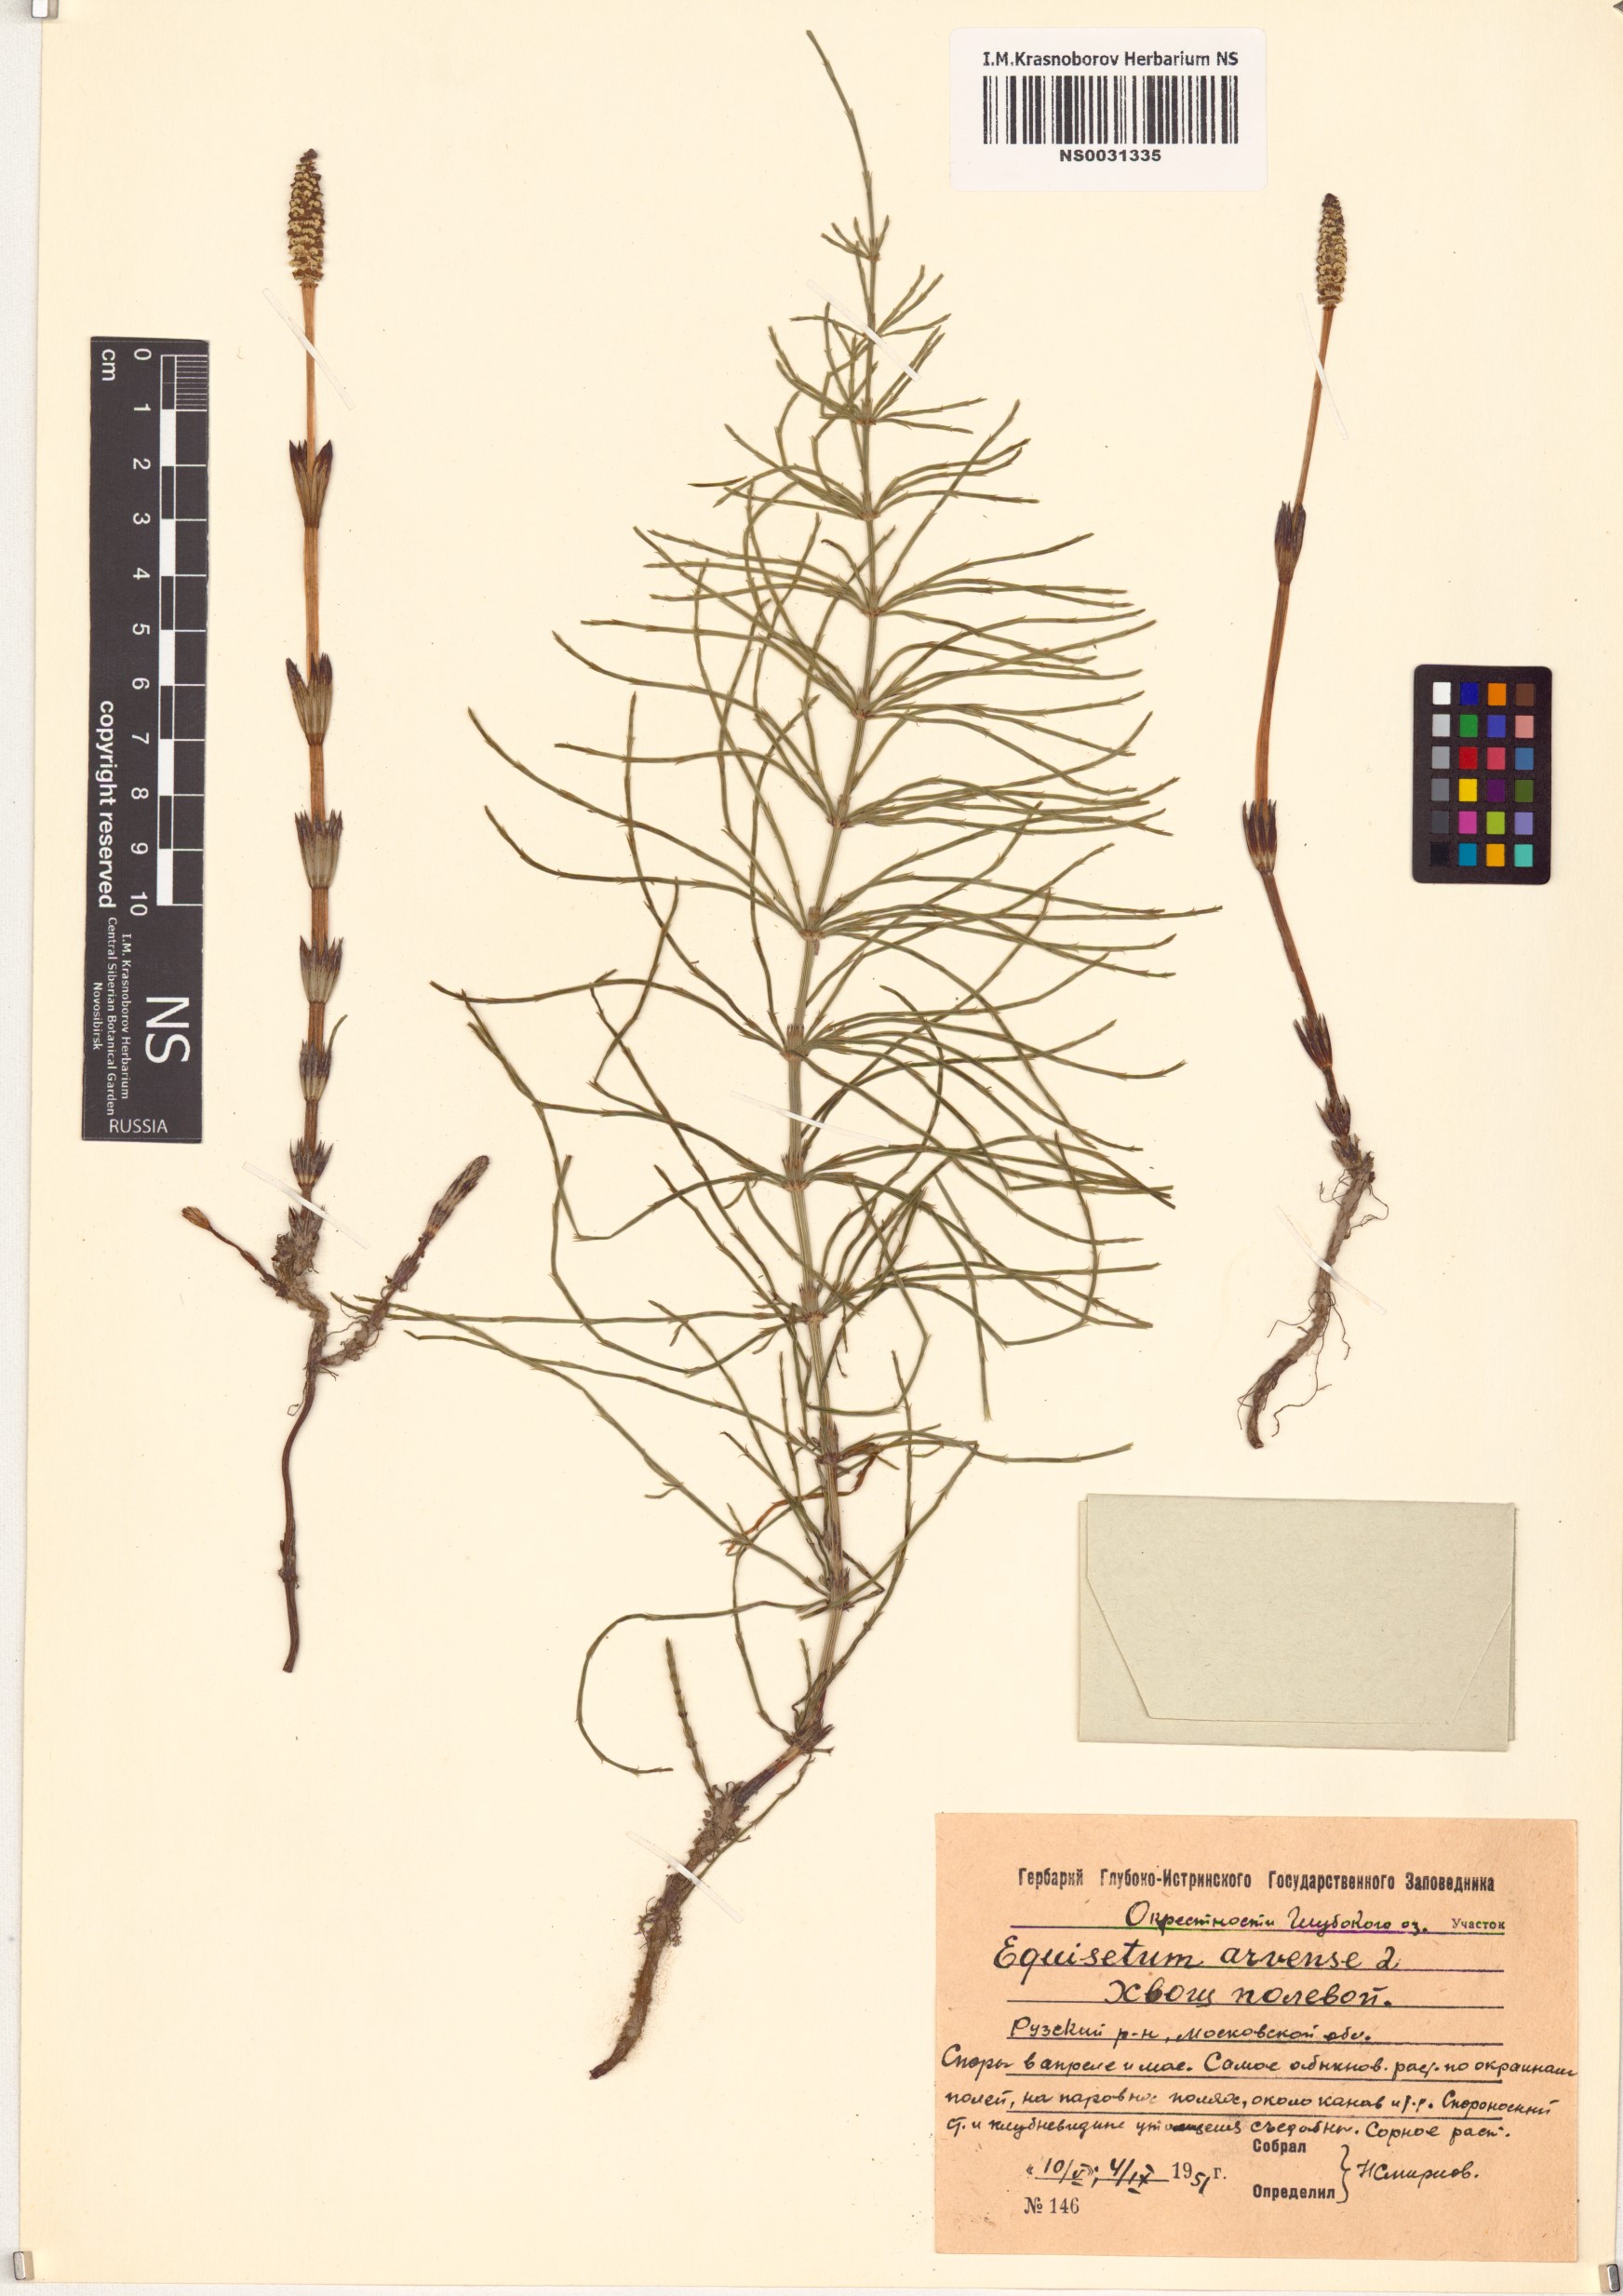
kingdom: Plantae
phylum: Tracheophyta
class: Polypodiopsida
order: Equisetales
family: Equisetaceae
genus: Equisetum
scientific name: Equisetum arvense
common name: Field horsetail
